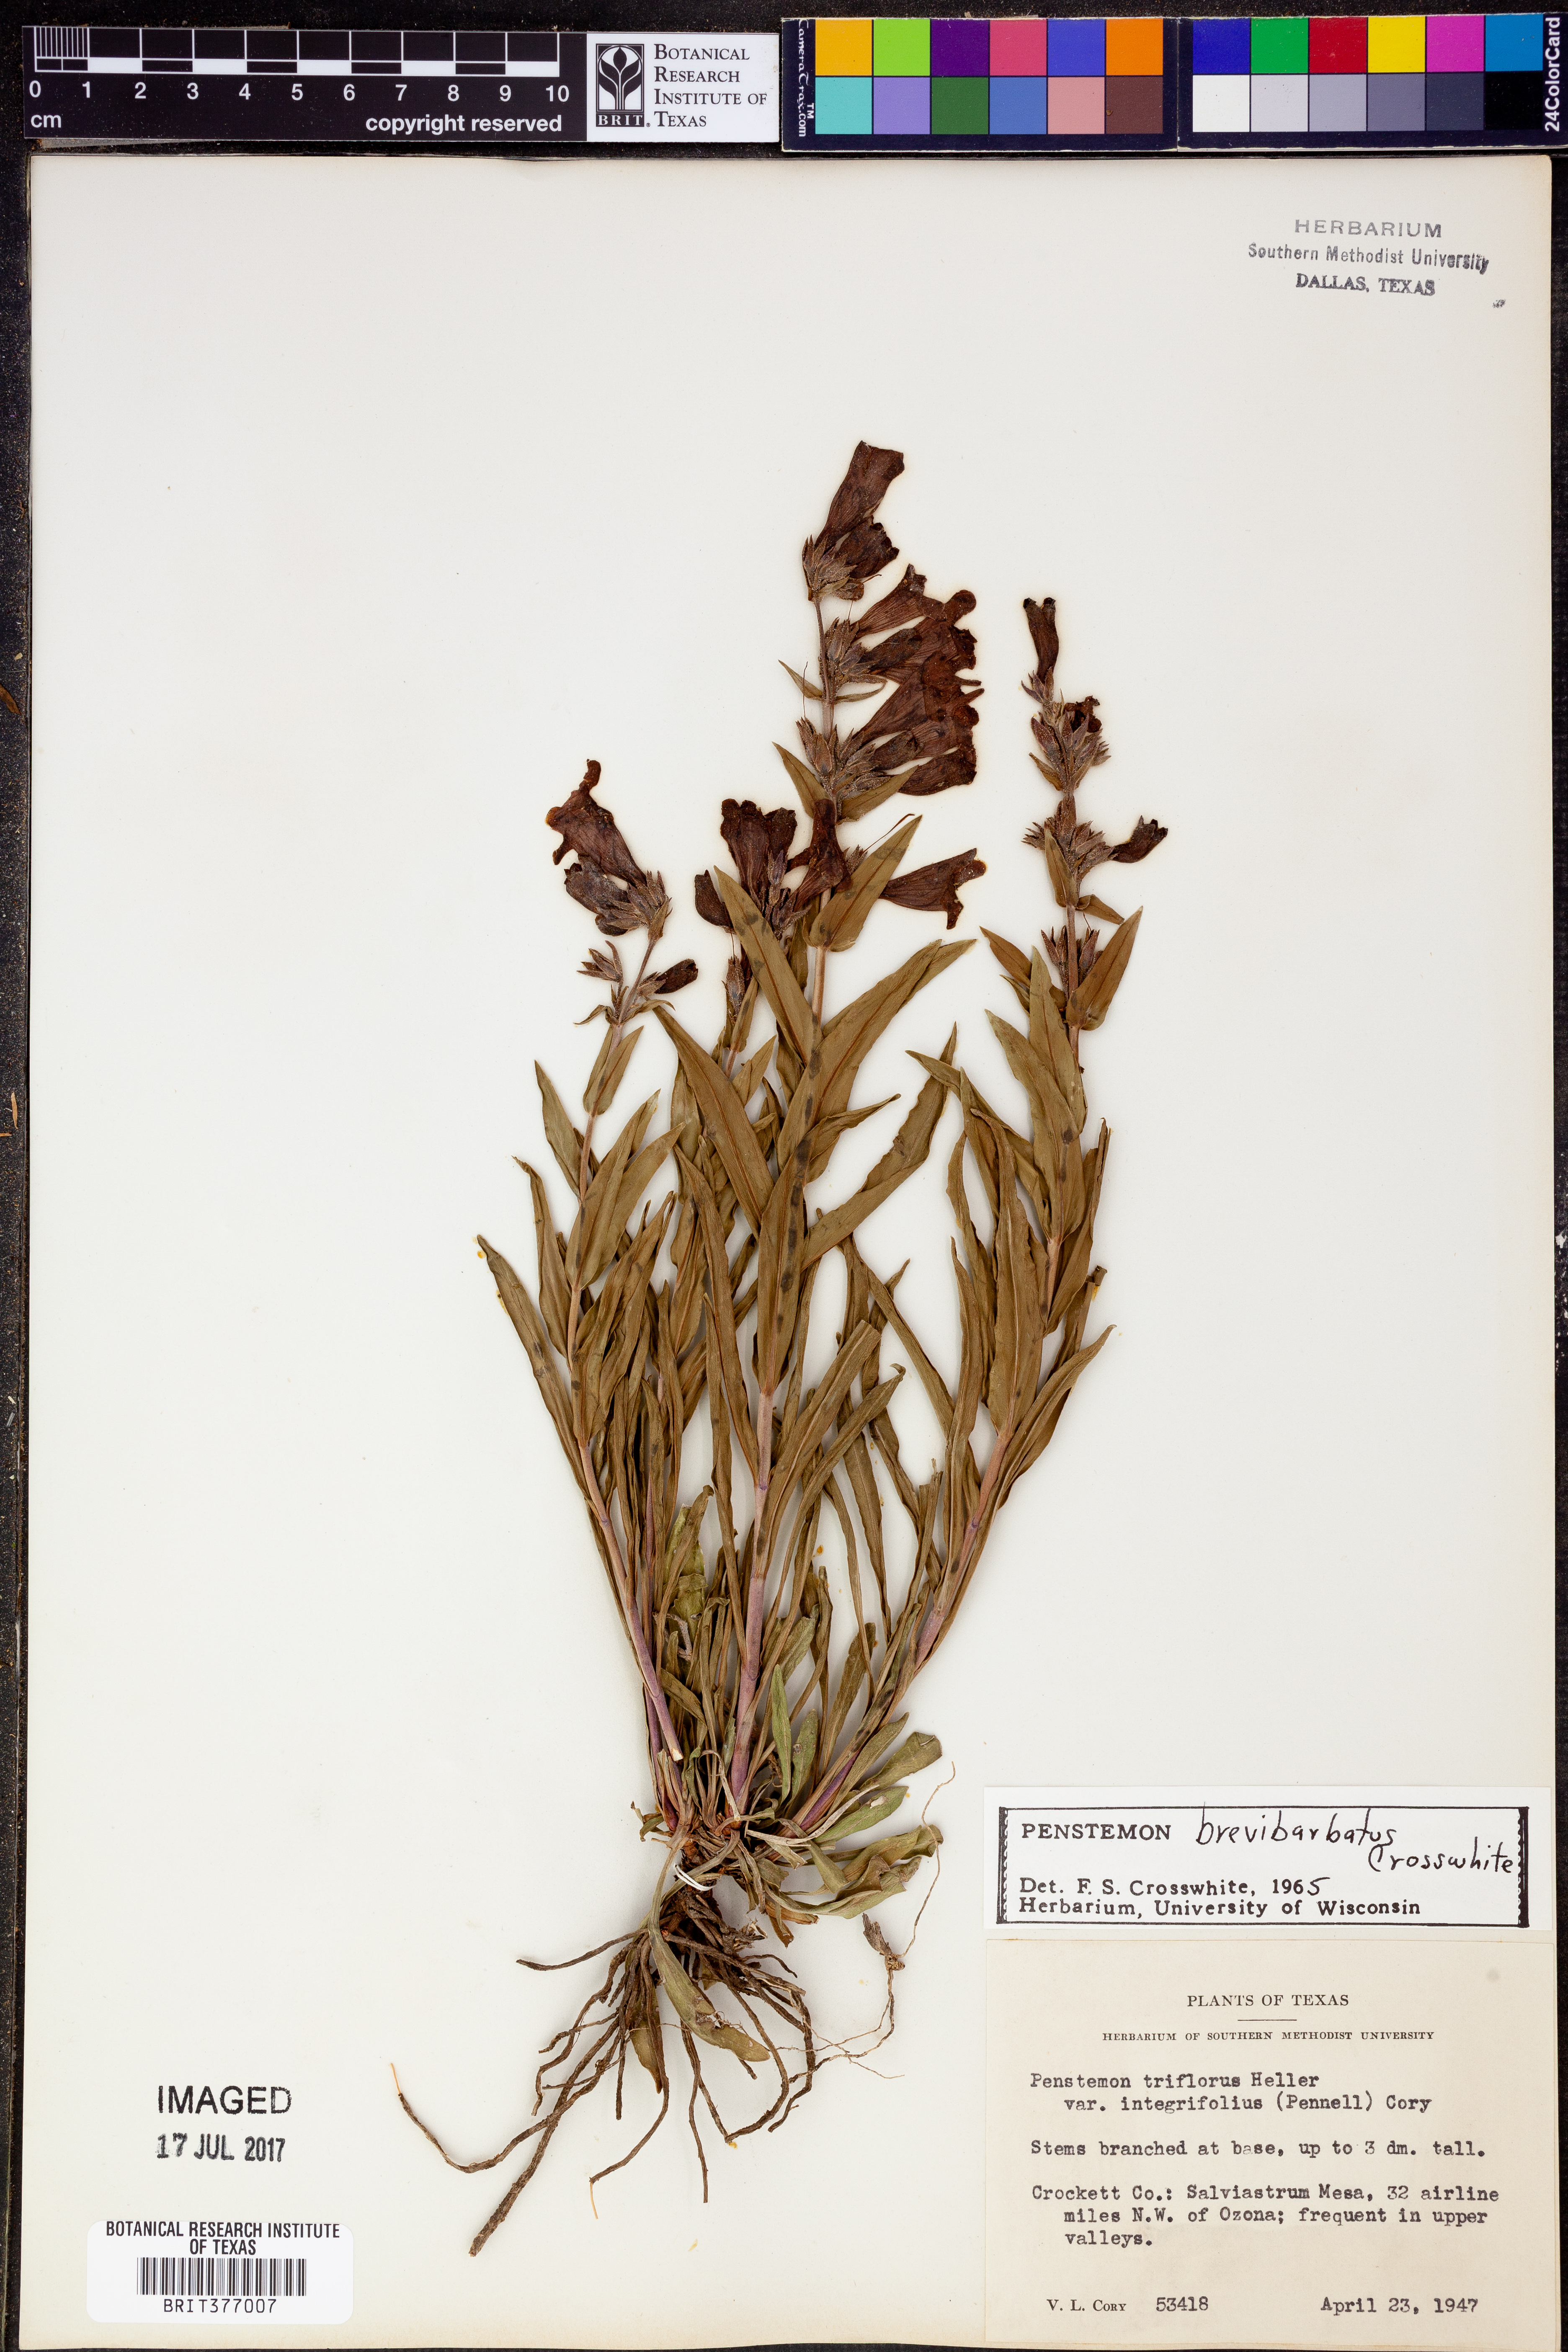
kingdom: Plantae
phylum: Tracheophyta
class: Magnoliopsida
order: Lamiales
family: Plantaginaceae
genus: Penstemon
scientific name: Penstemon brevibarbatus
